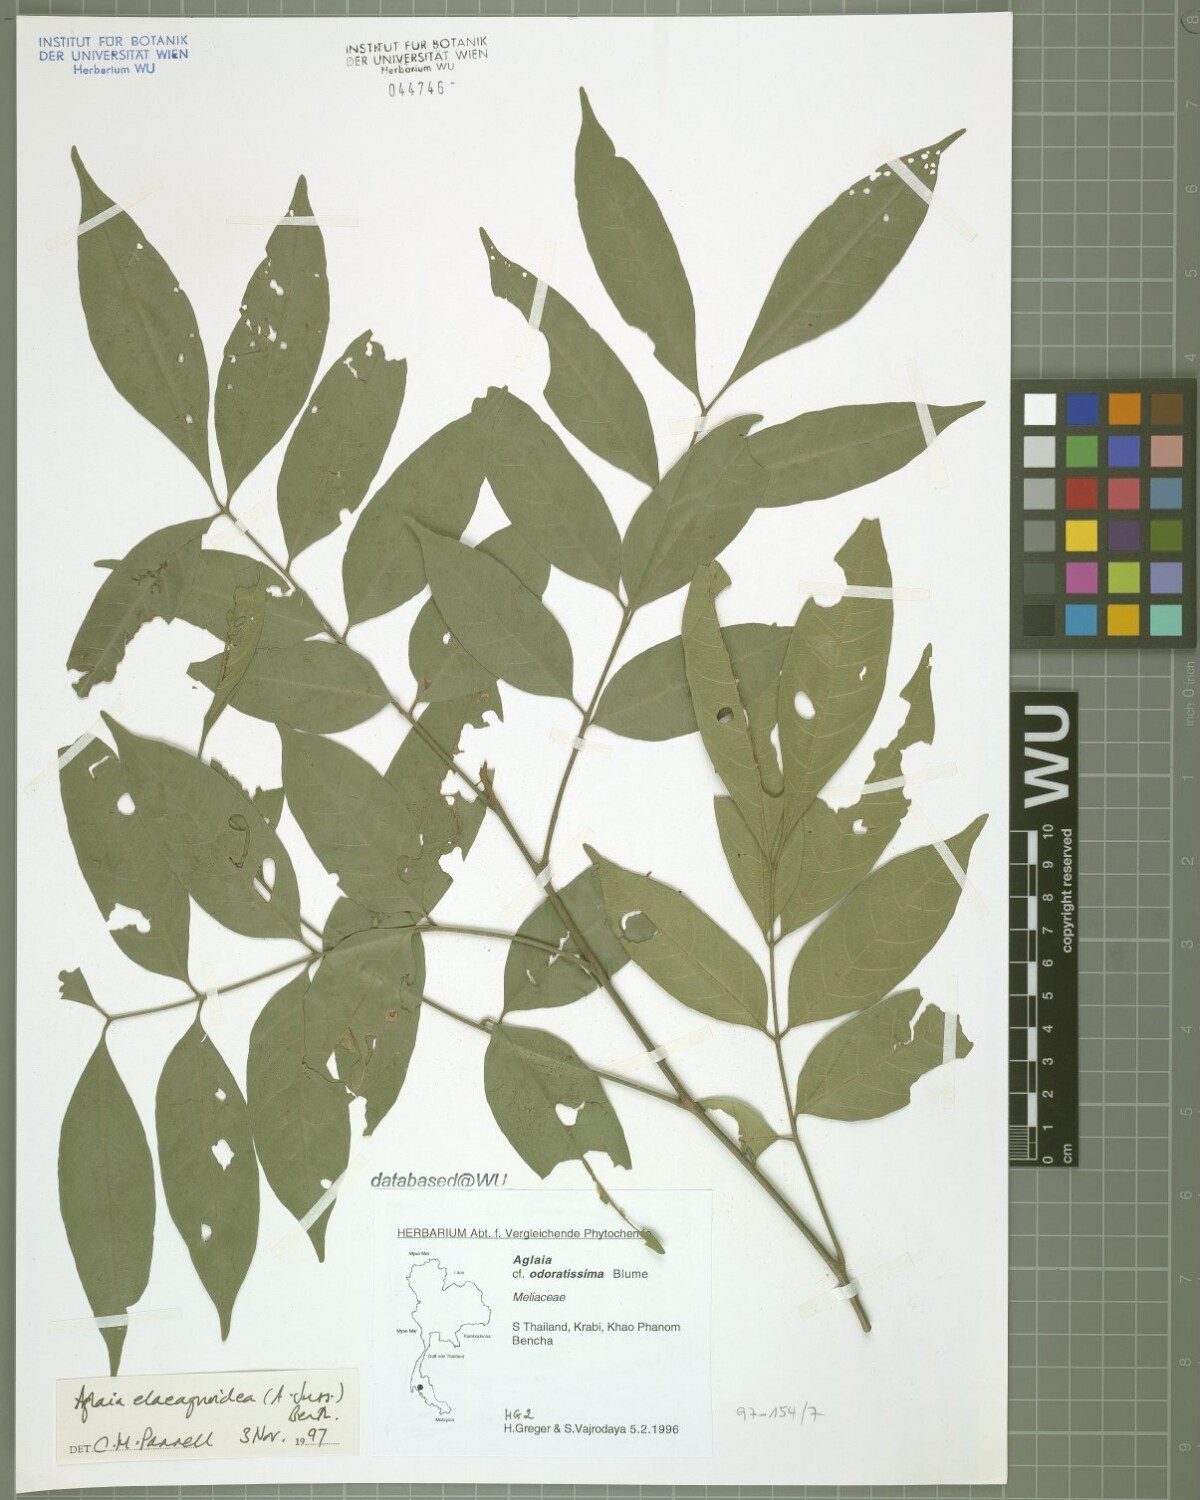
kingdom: Plantae
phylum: Tracheophyta
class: Magnoliopsida
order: Sapindales
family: Meliaceae
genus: Aglaia
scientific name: Aglaia elaeagnoidea
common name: Droopyleaf
